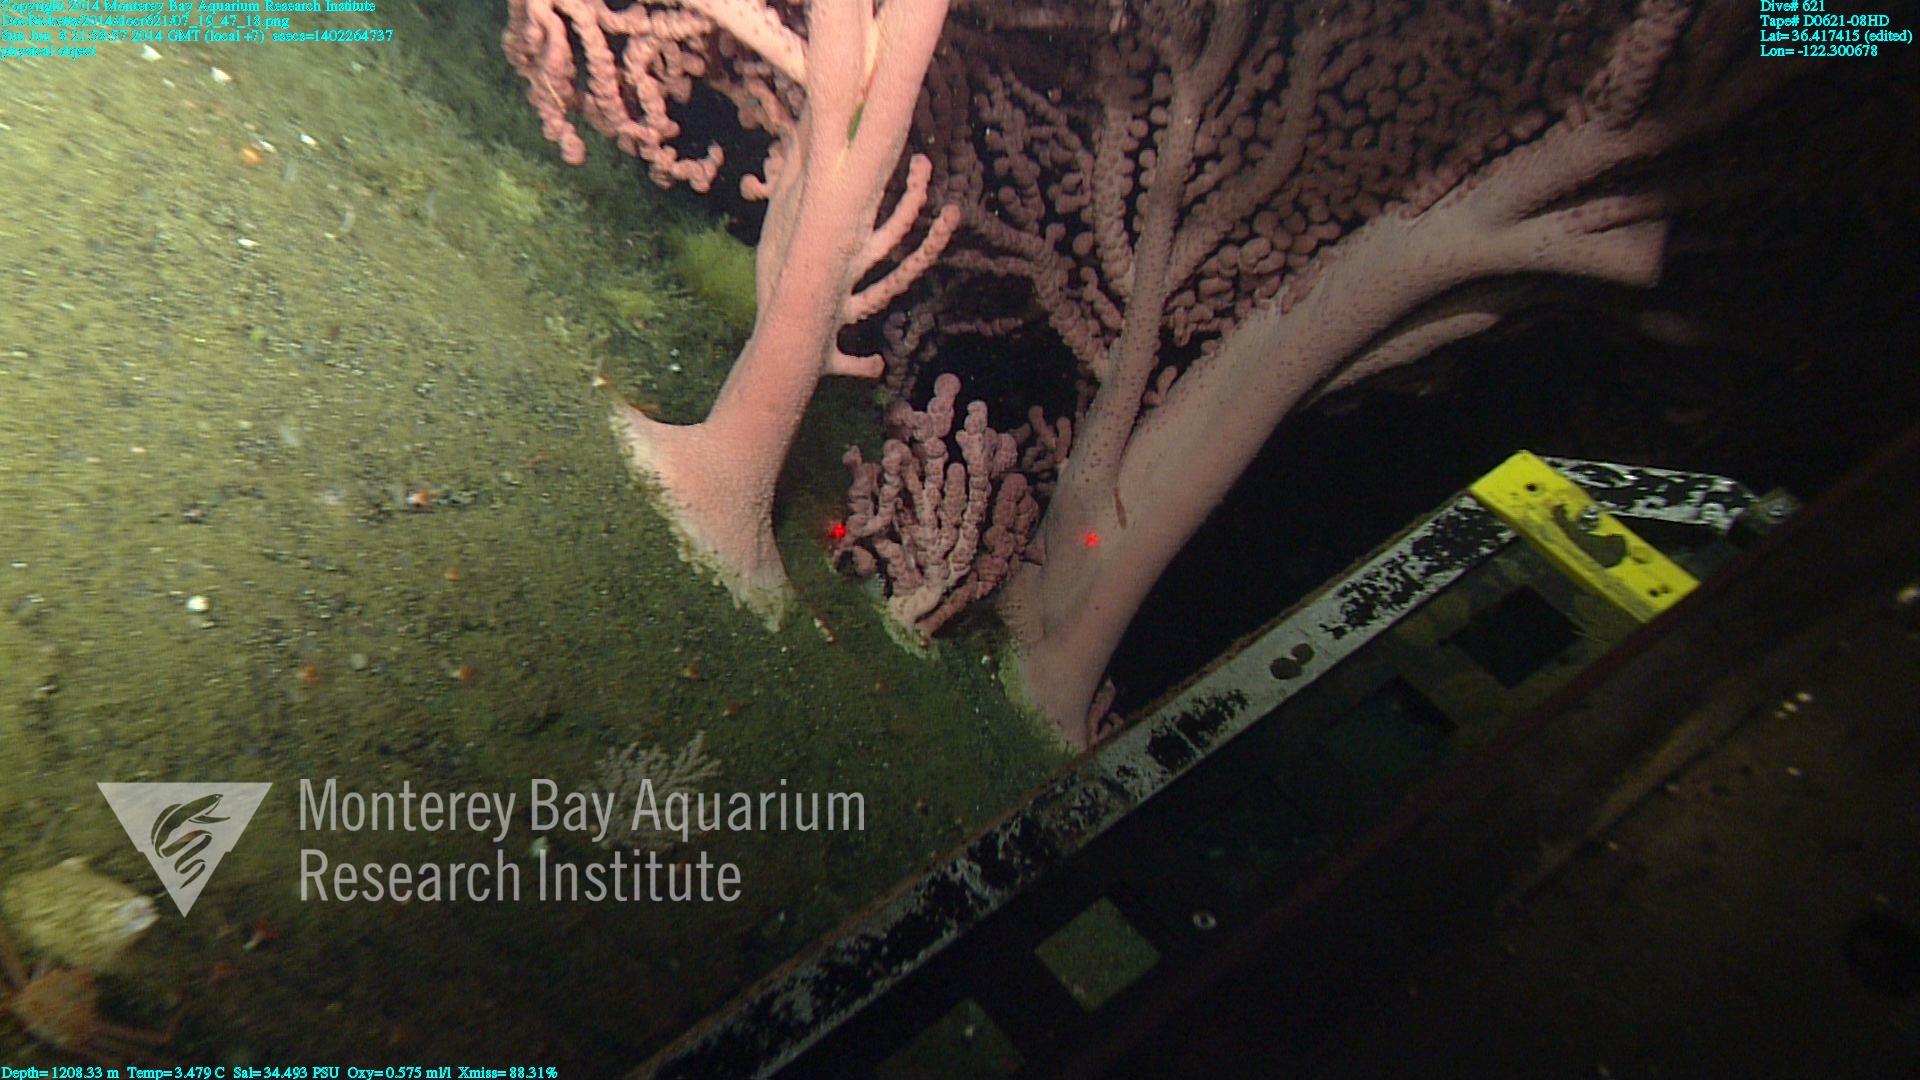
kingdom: Animalia
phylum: Cnidaria
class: Anthozoa
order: Scleralcyonacea
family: Coralliidae
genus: Paragorgia
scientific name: Paragorgia arborea
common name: Bubble gum coral
